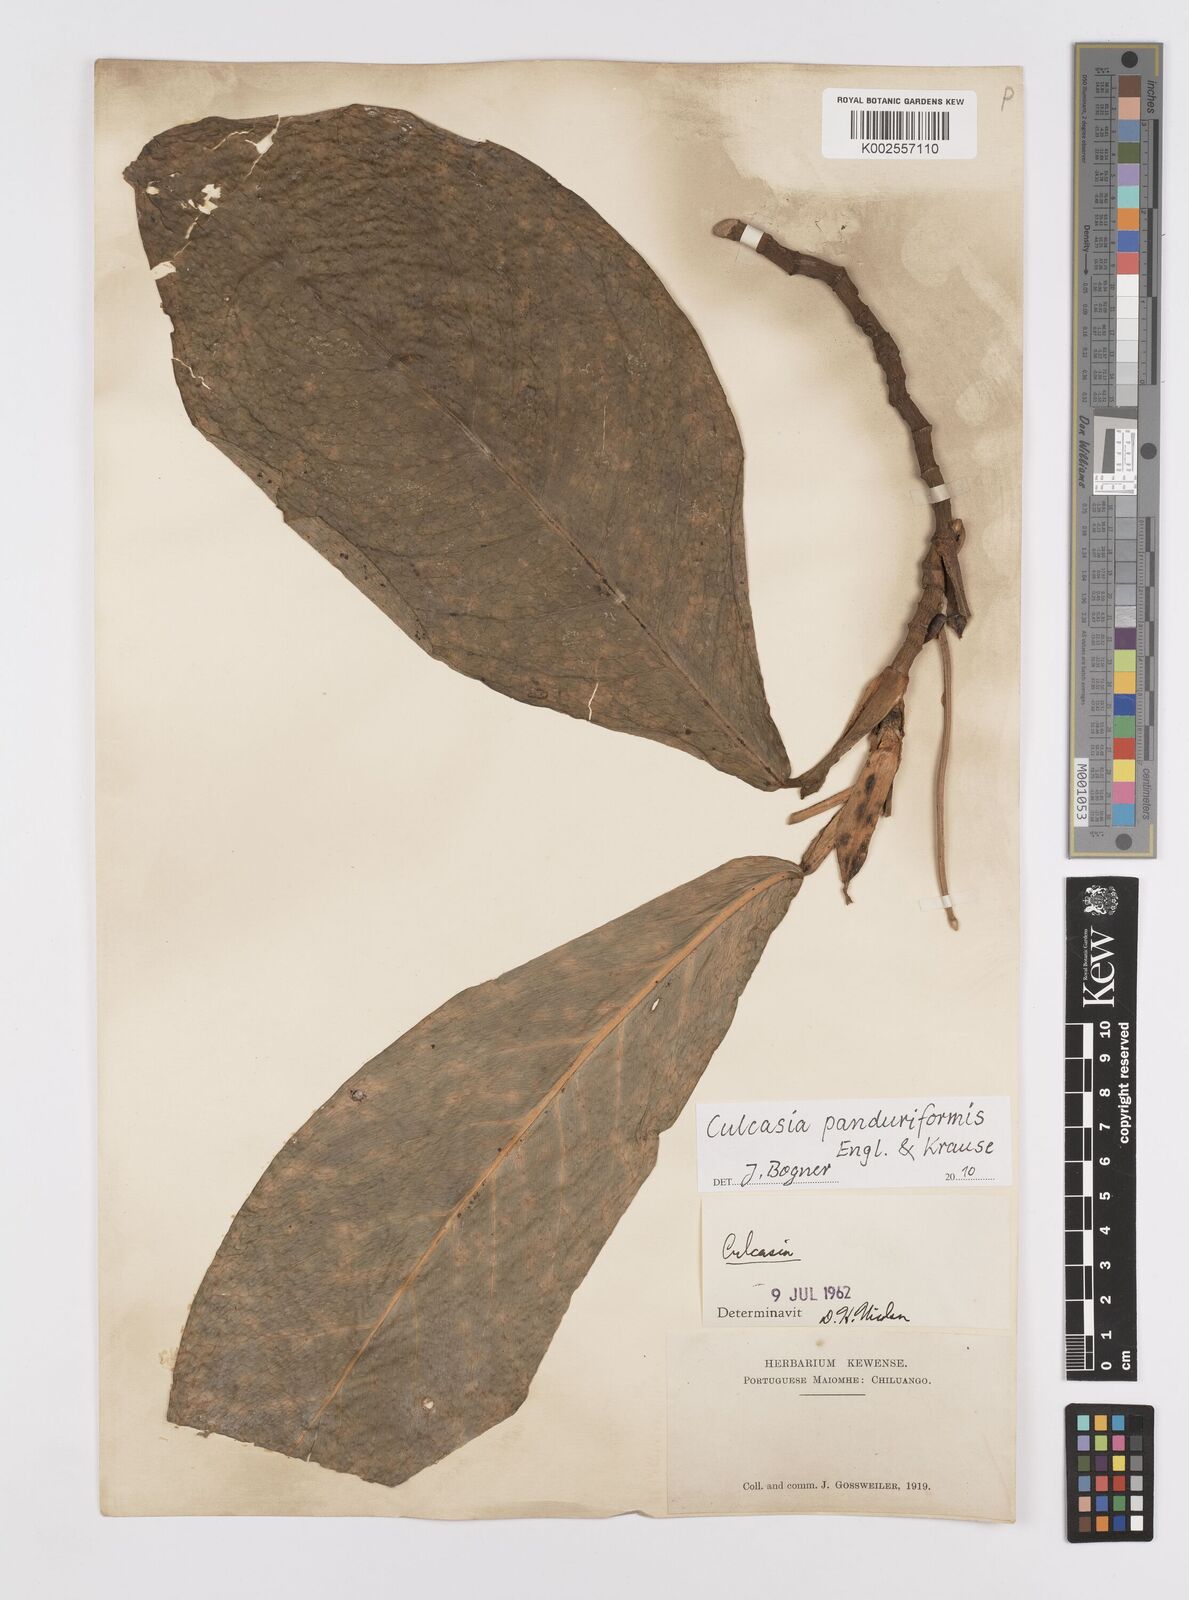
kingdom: Plantae
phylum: Tracheophyta
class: Liliopsida
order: Alismatales
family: Araceae
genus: Culcasia
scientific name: Culcasia panduriformis
